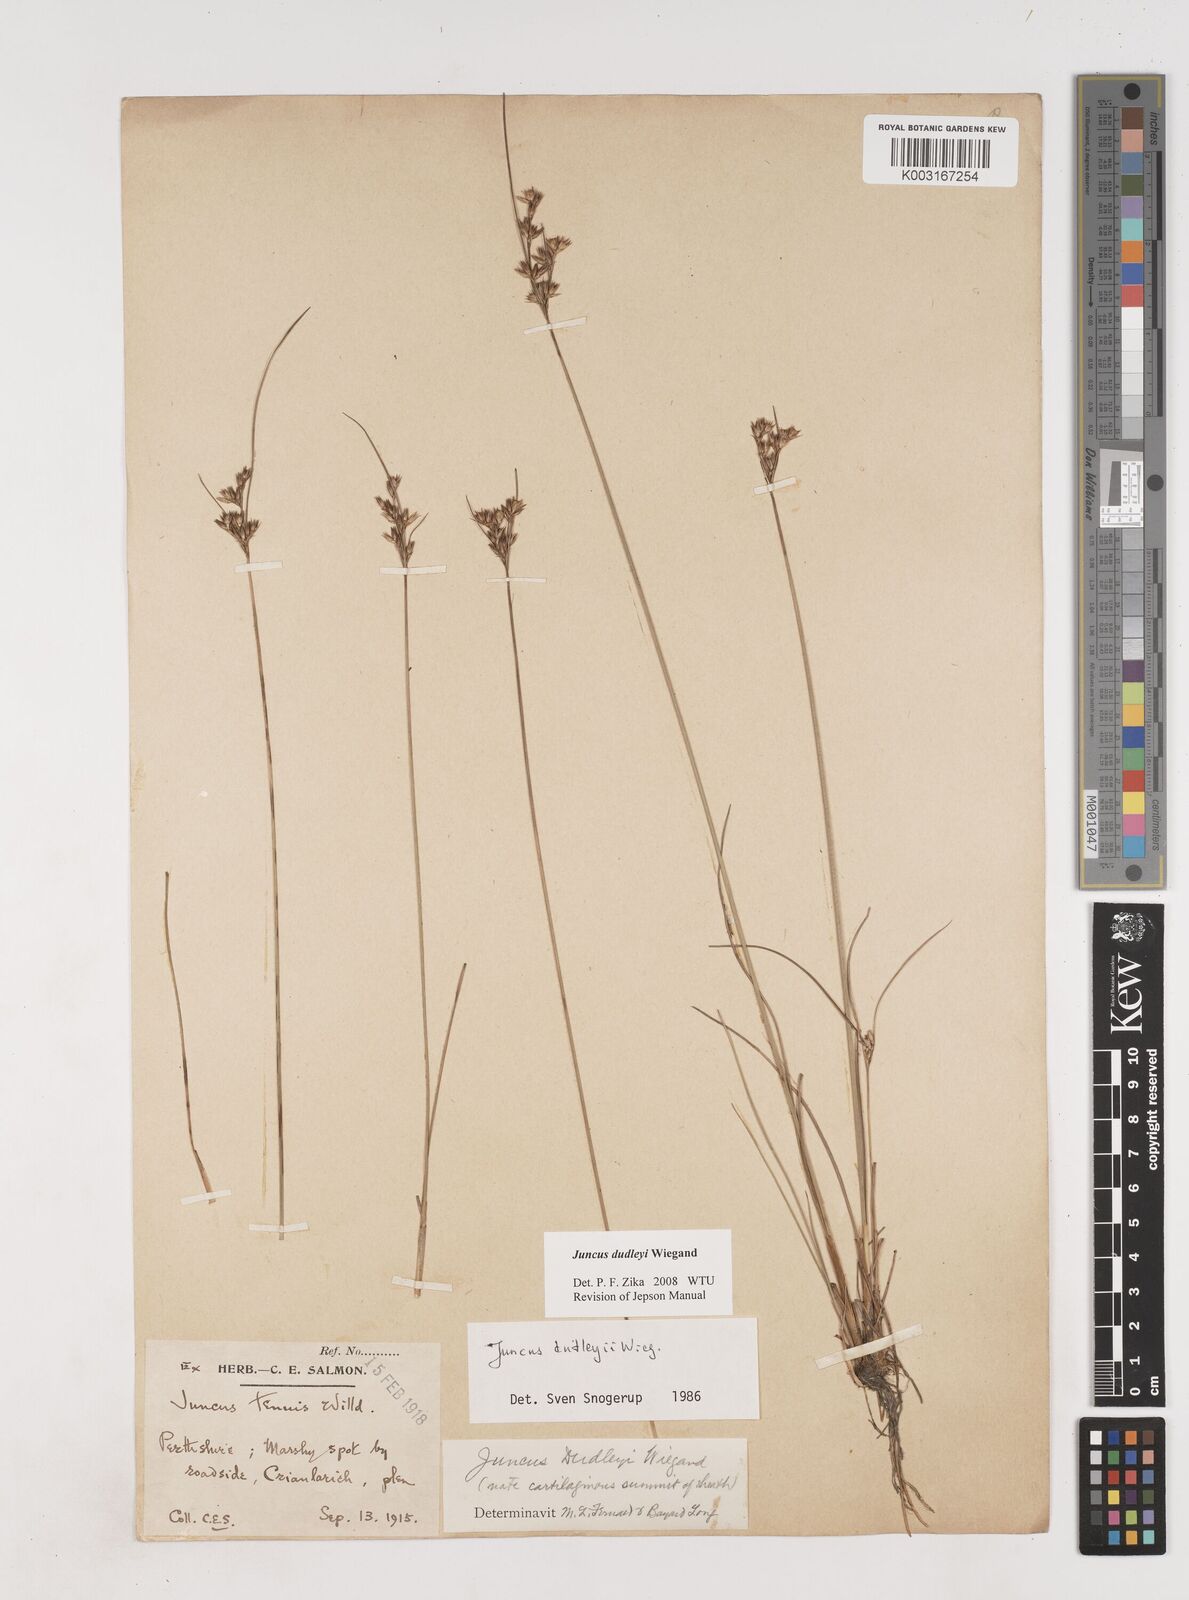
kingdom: Plantae
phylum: Tracheophyta
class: Liliopsida
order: Poales
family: Juncaceae
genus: Juncus
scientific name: Juncus dudleyi
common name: Dudley's rush
